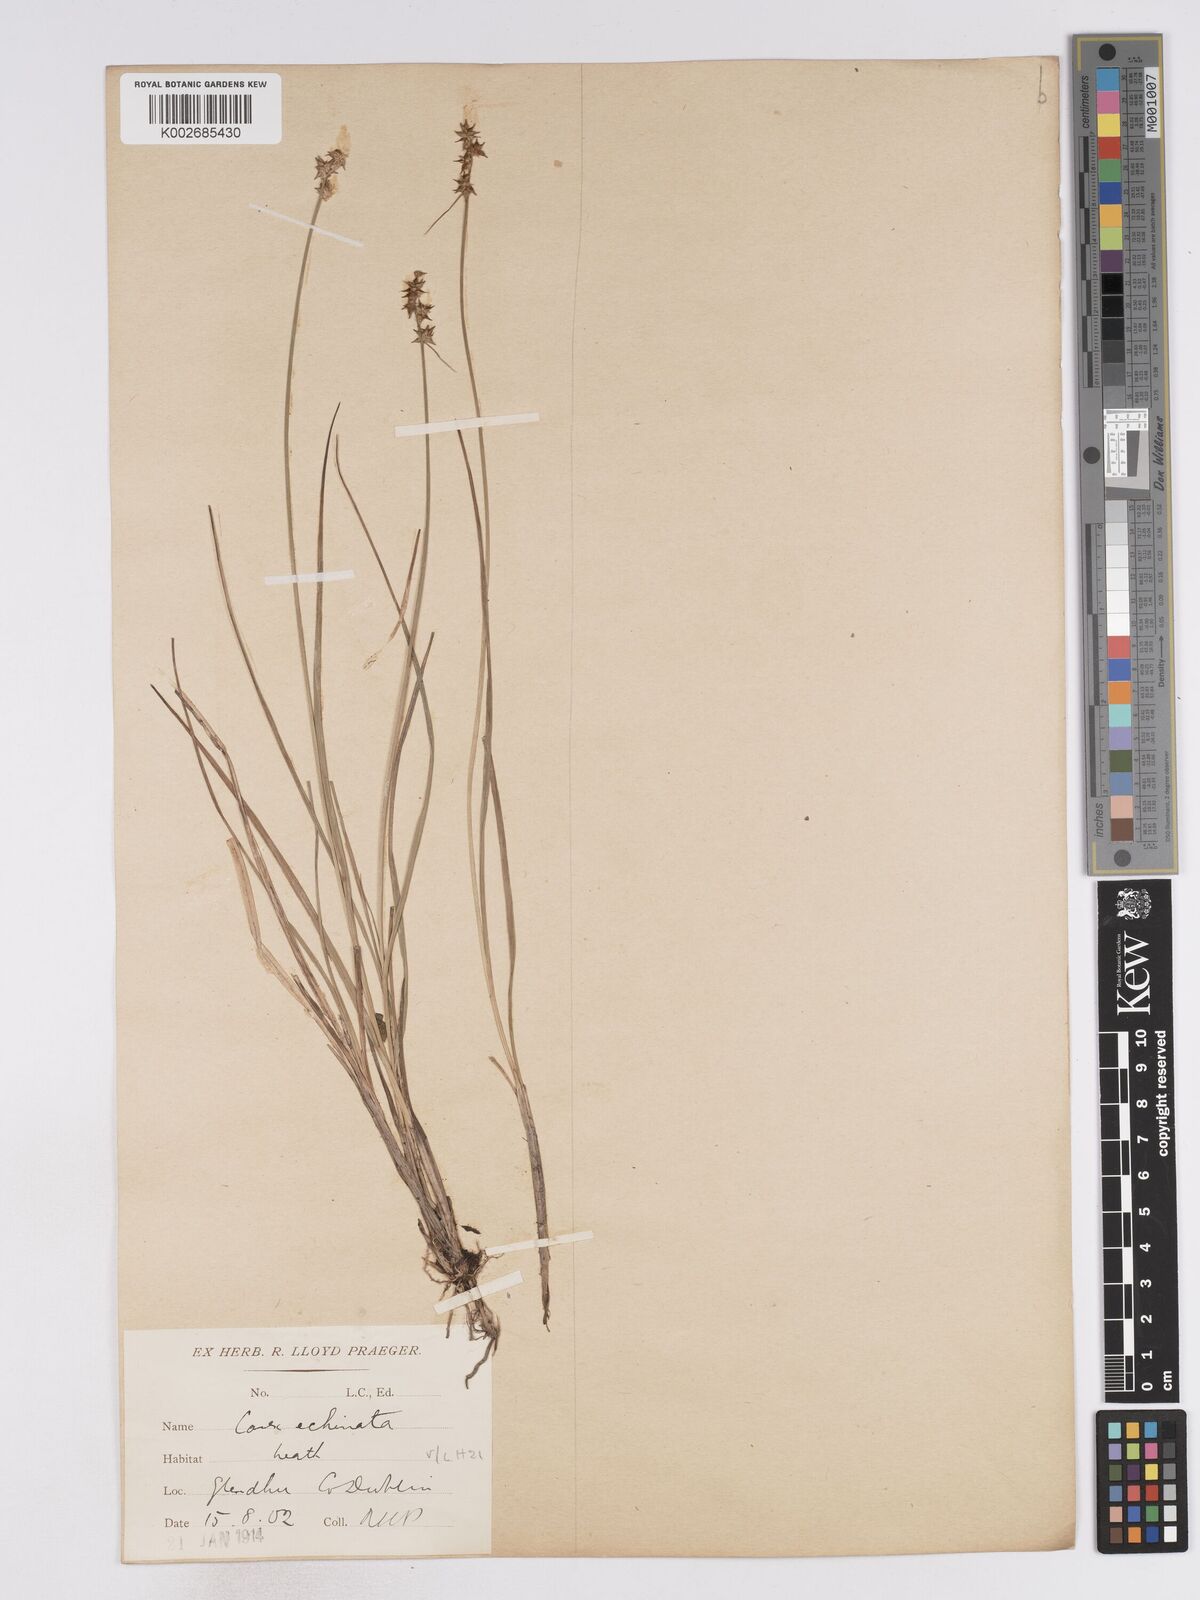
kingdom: Plantae
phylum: Tracheophyta
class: Liliopsida
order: Poales
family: Cyperaceae
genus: Carex
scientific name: Carex echinata
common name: Star sedge
